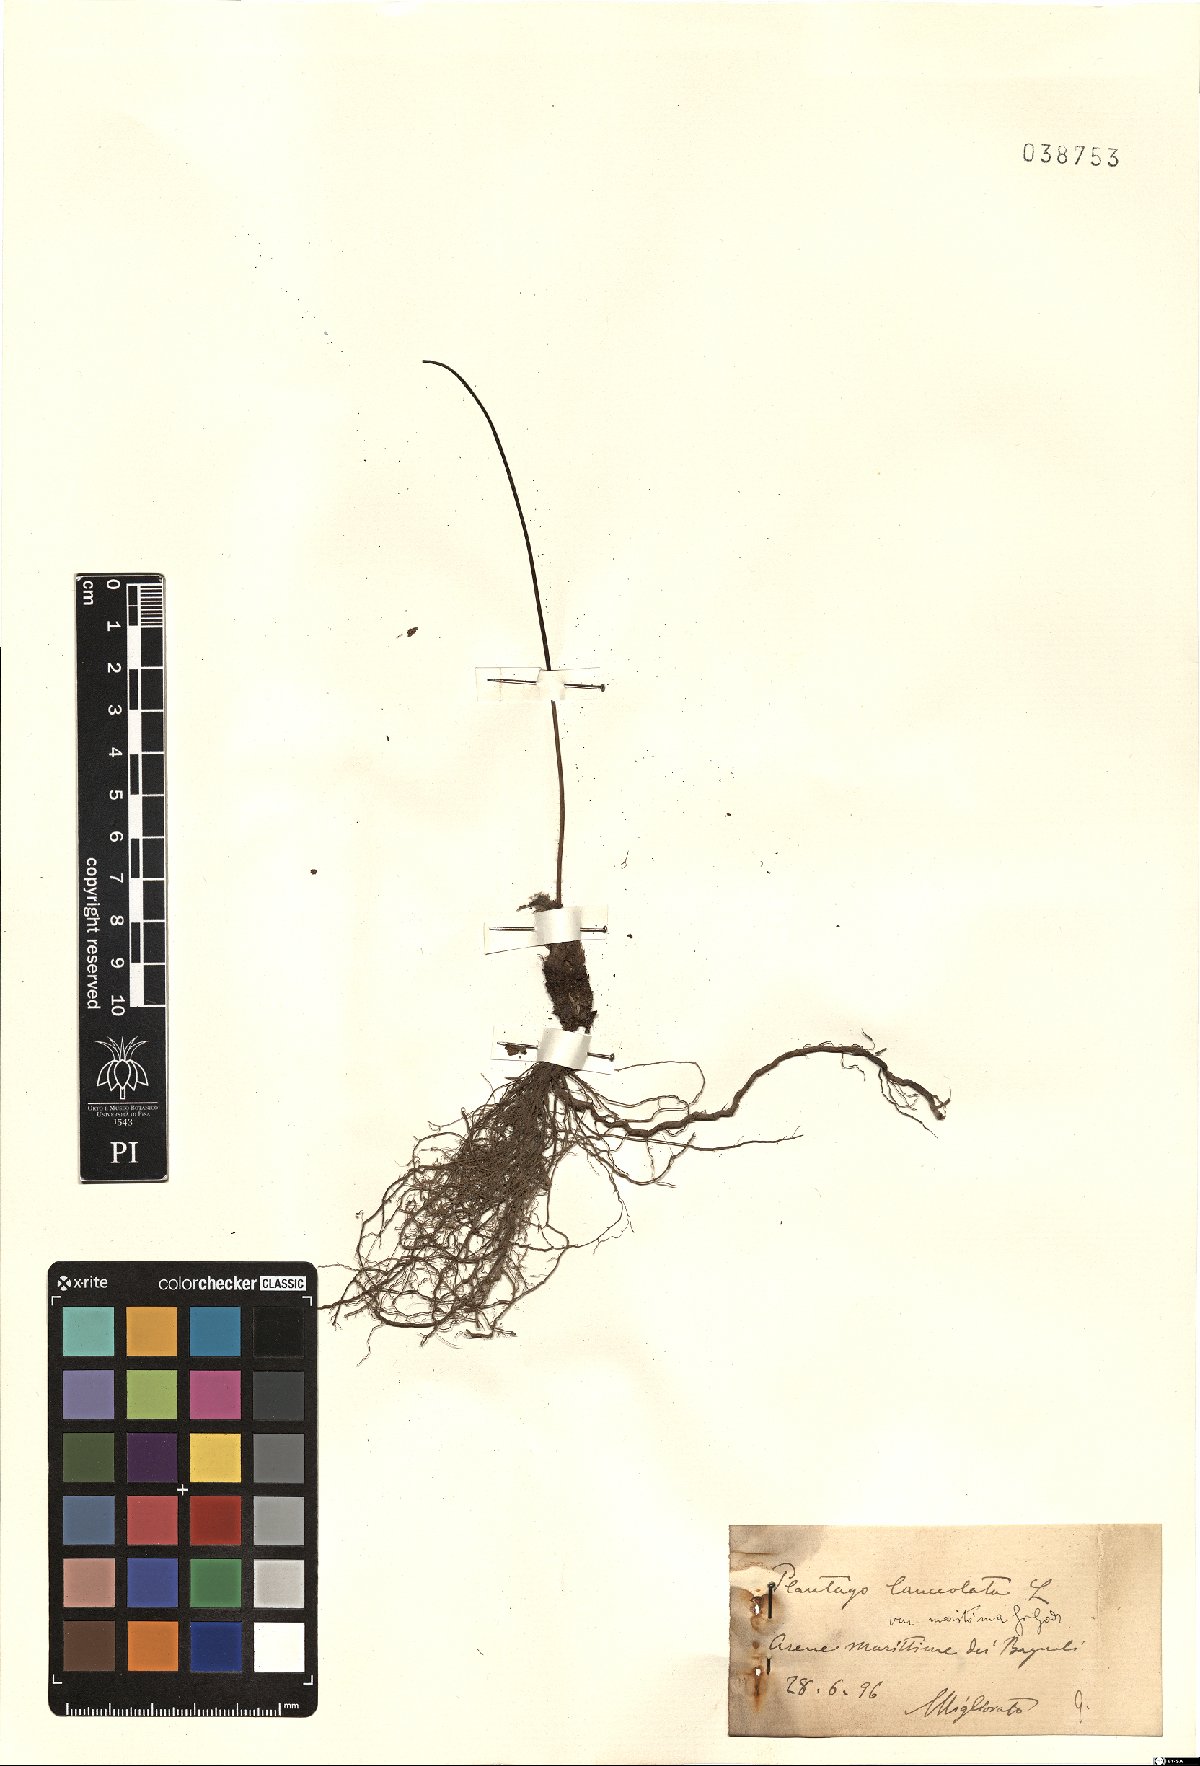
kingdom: Plantae
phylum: Tracheophyta
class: Magnoliopsida
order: Lamiales
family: Plantaginaceae
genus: Plantago
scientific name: Plantago lanceolata
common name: Ribwort plantain
